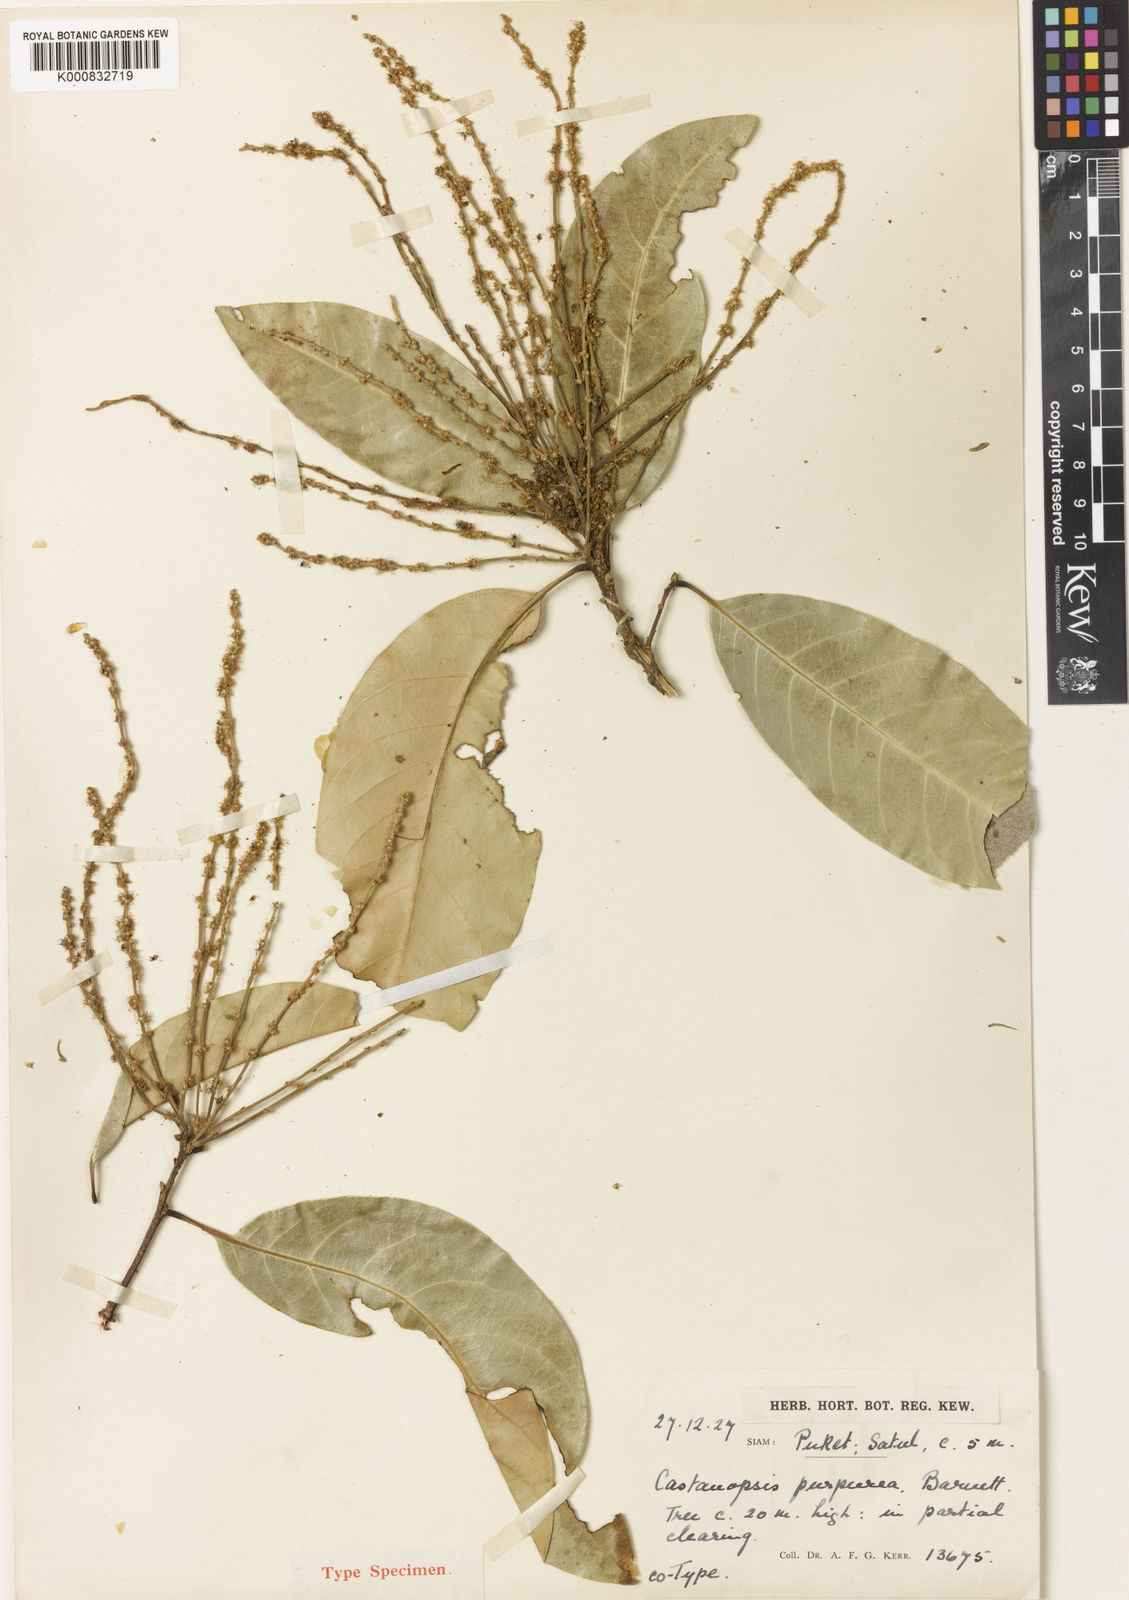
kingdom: Plantae
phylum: Tracheophyta
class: Magnoliopsida
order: Fagales
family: Fagaceae
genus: Castanopsis
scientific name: Castanopsis calathiformis
